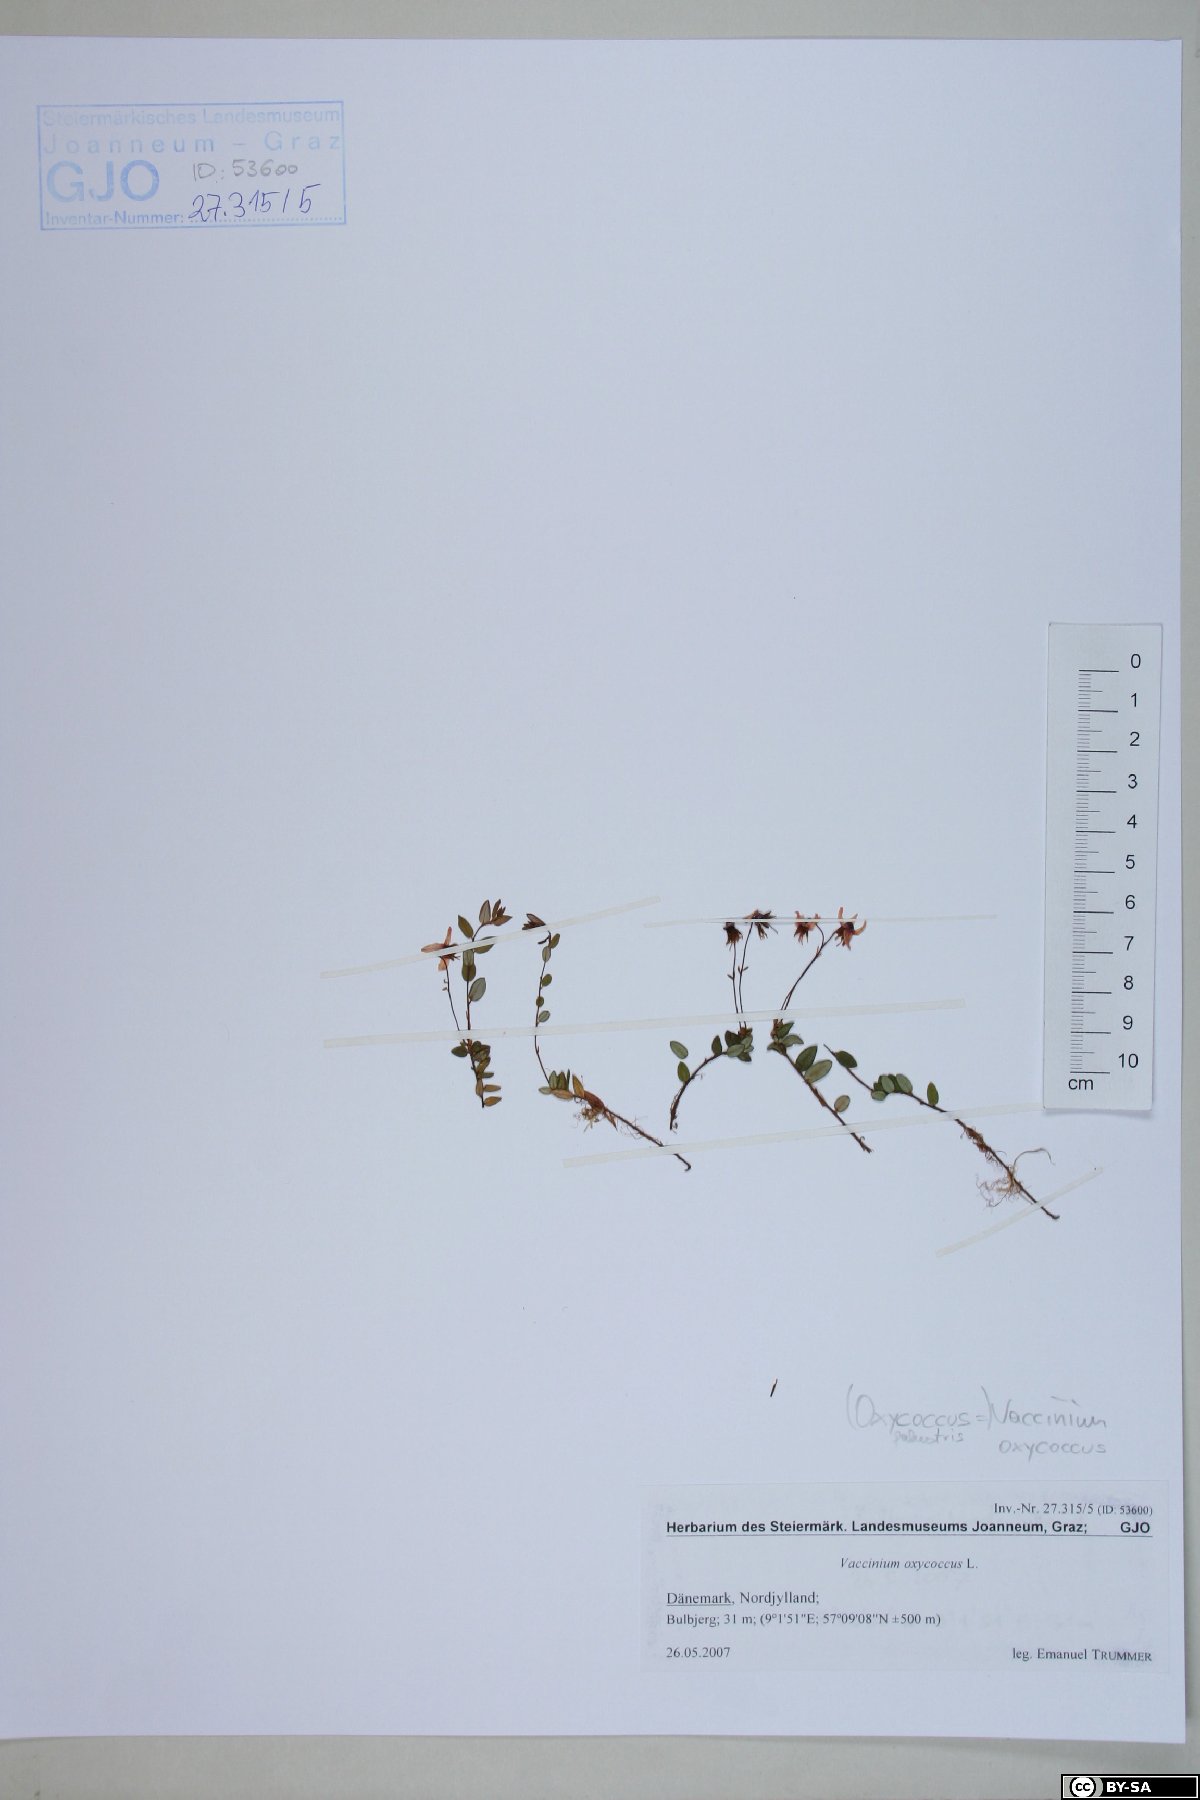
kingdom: Plantae
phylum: Tracheophyta
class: Magnoliopsida
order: Ericales
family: Ericaceae
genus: Vaccinium
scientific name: Vaccinium oxycoccos
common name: Cranberry
